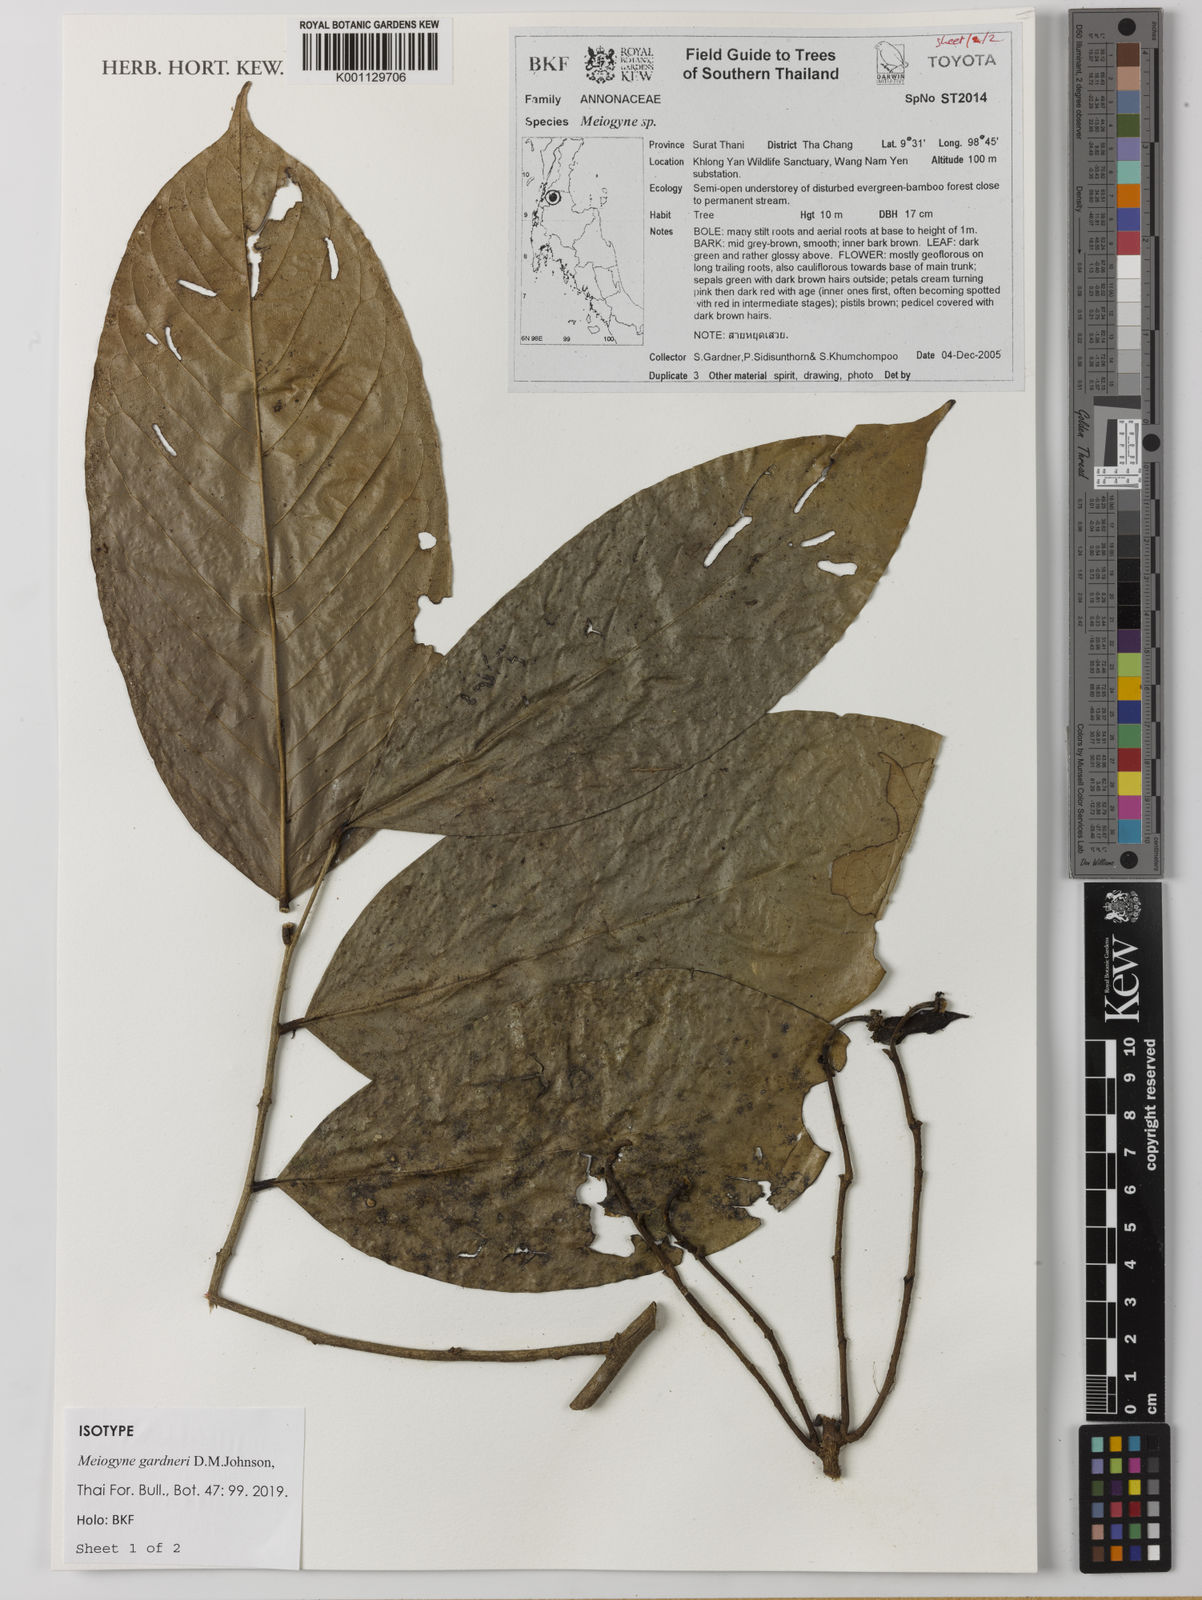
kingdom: Plantae
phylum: Tracheophyta
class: Magnoliopsida
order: Magnoliales
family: Annonaceae
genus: Meiogyne
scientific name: Meiogyne gardneri
